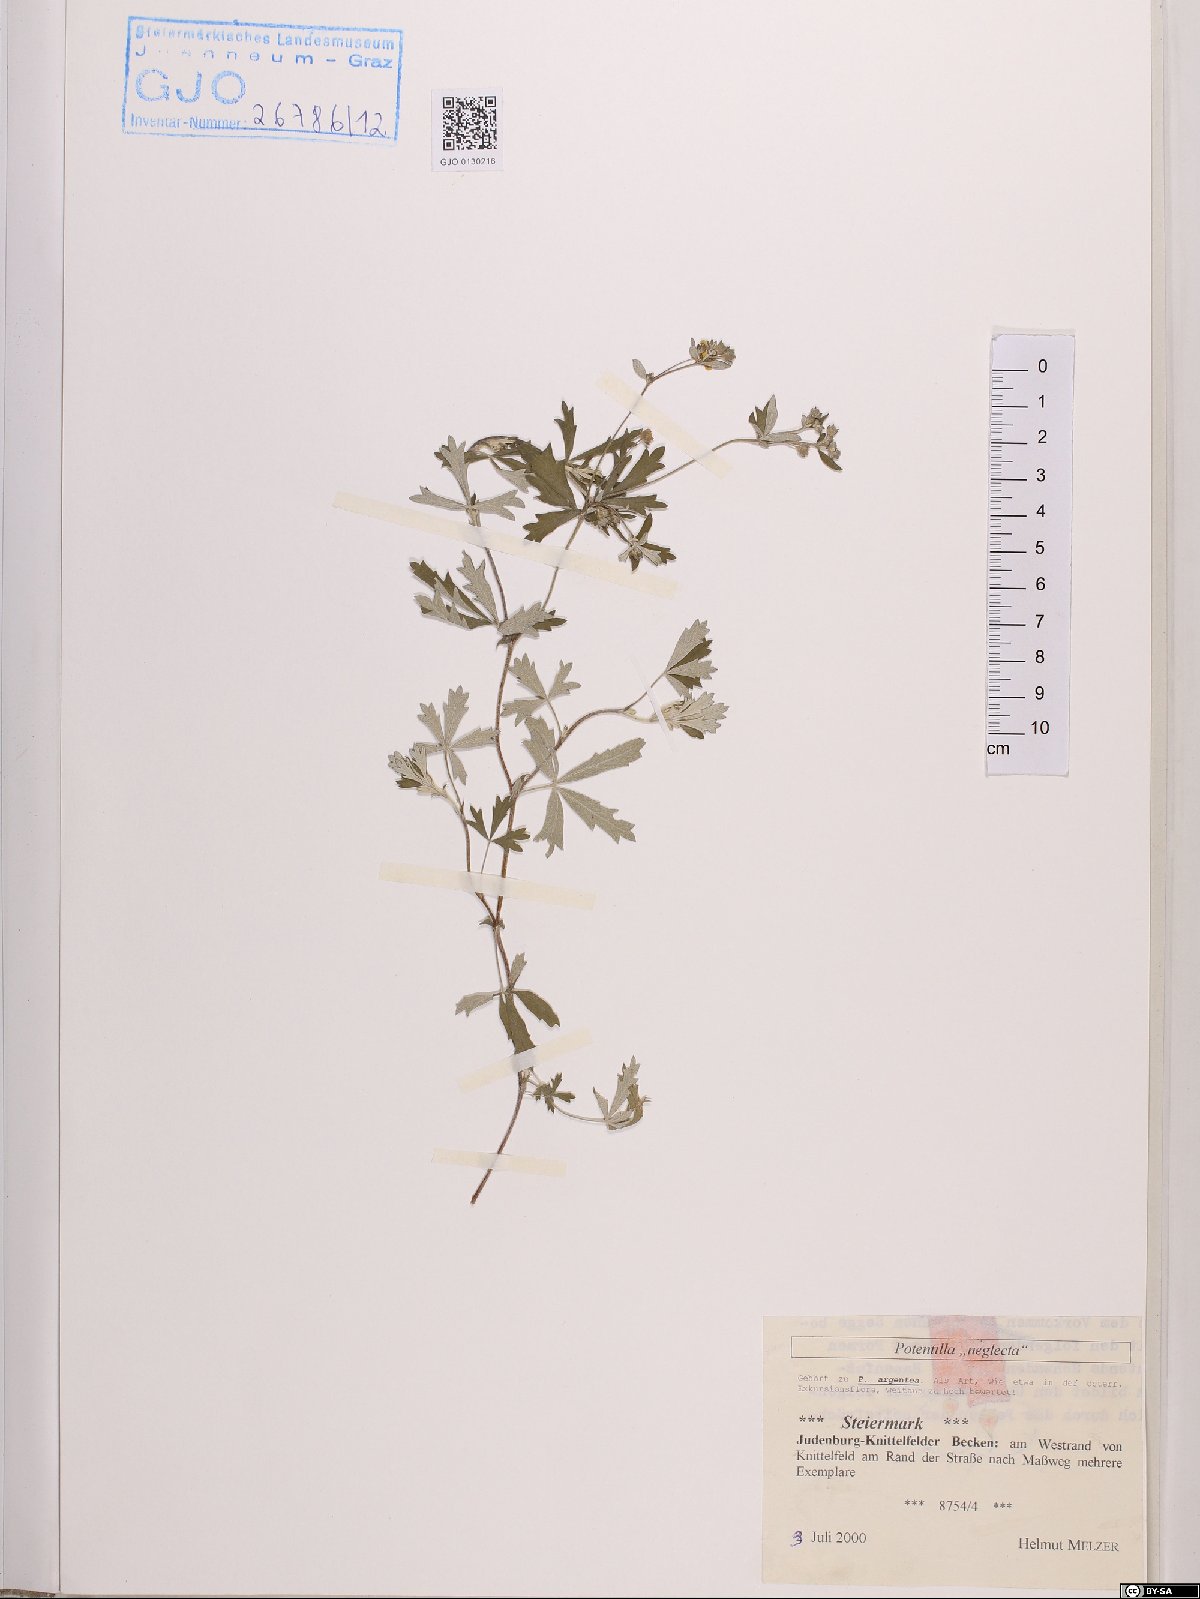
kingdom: Plantae
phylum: Tracheophyta
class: Magnoliopsida
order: Rosales
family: Rosaceae
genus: Potentilla
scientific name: Potentilla neglecta
